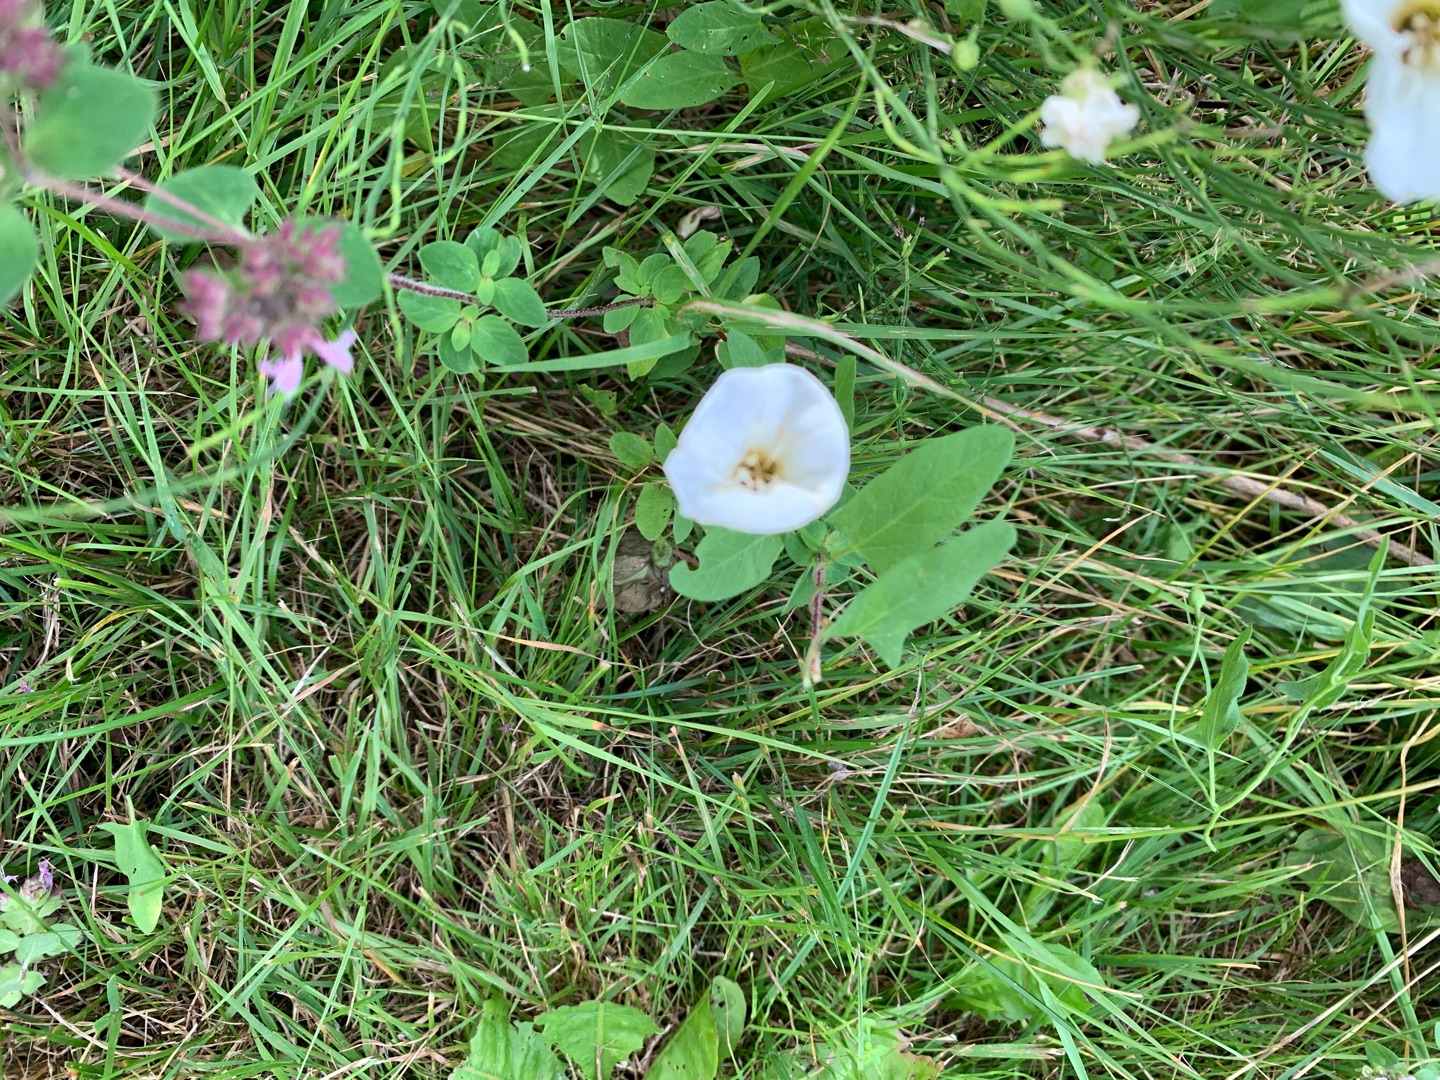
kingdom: Plantae
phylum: Tracheophyta
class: Magnoliopsida
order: Solanales
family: Convolvulaceae
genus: Convolvulus
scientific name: Convolvulus arvensis
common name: Ager-snerle
